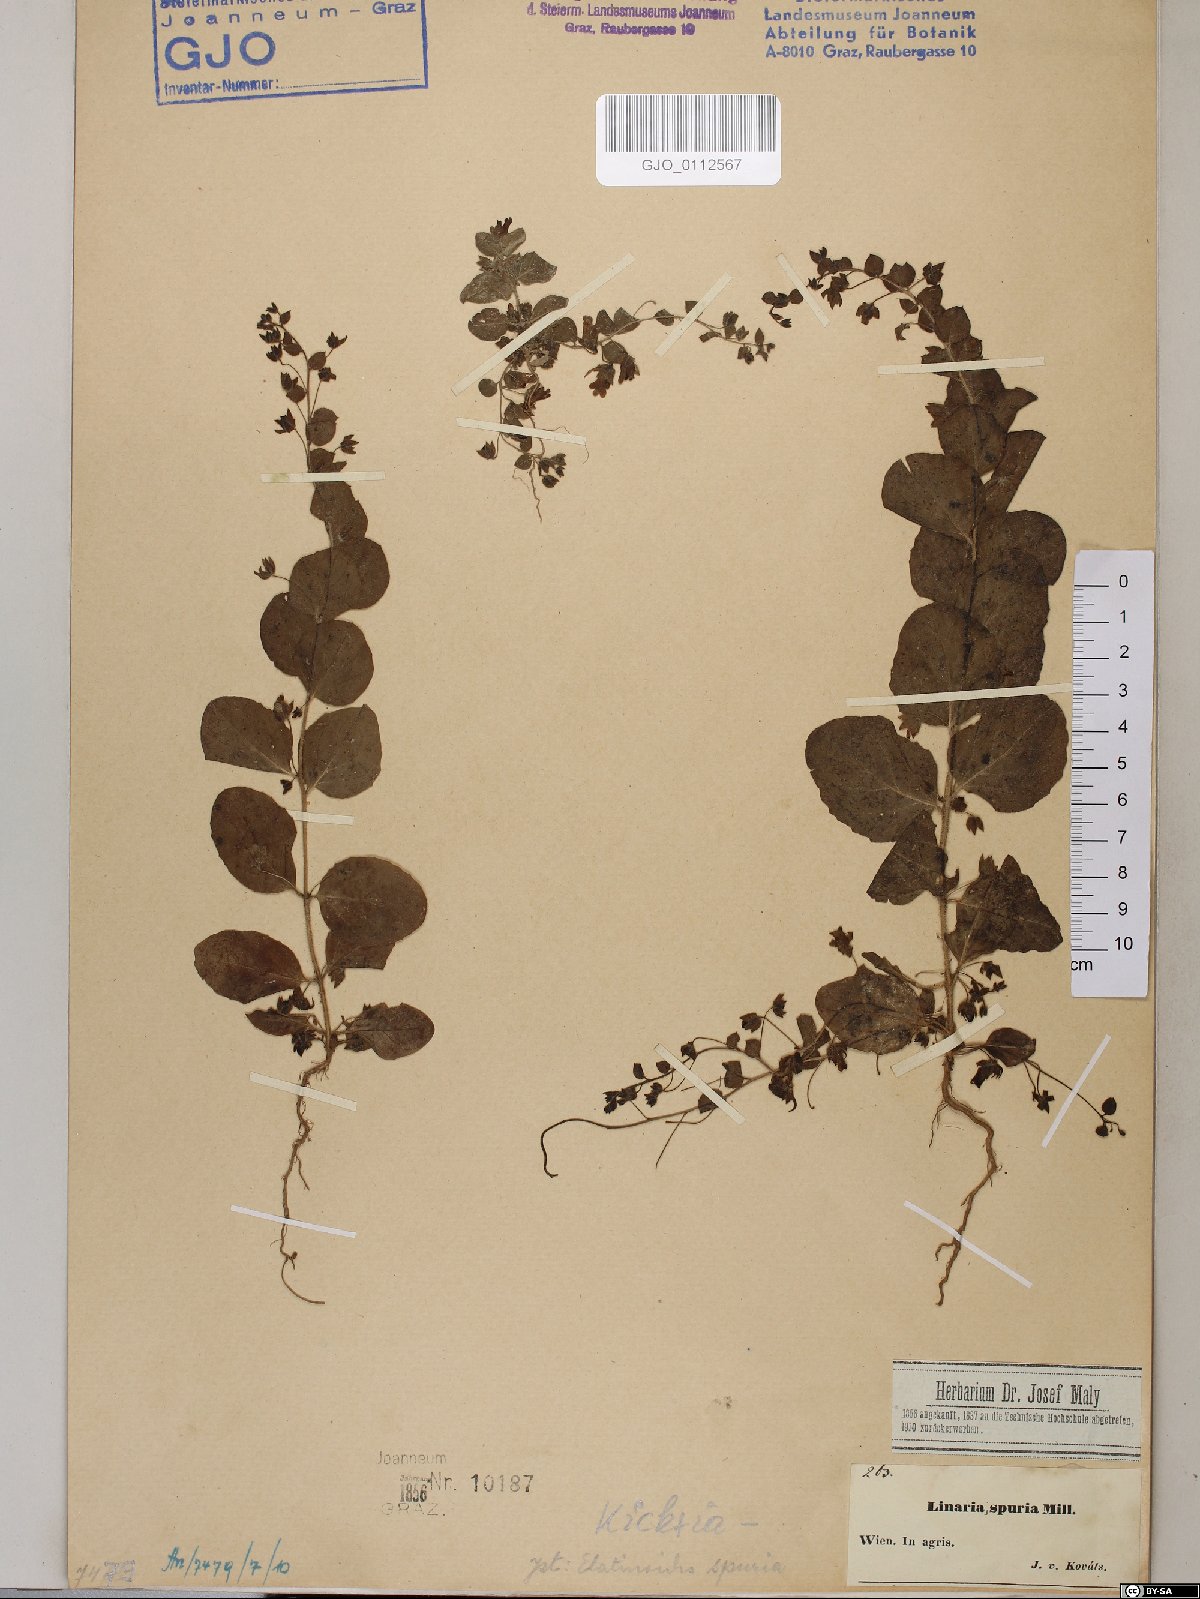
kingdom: Plantae
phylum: Tracheophyta
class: Magnoliopsida
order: Lamiales
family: Plantaginaceae
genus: Kickxia
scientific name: Kickxia spuria
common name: Round-leaved fluellen
